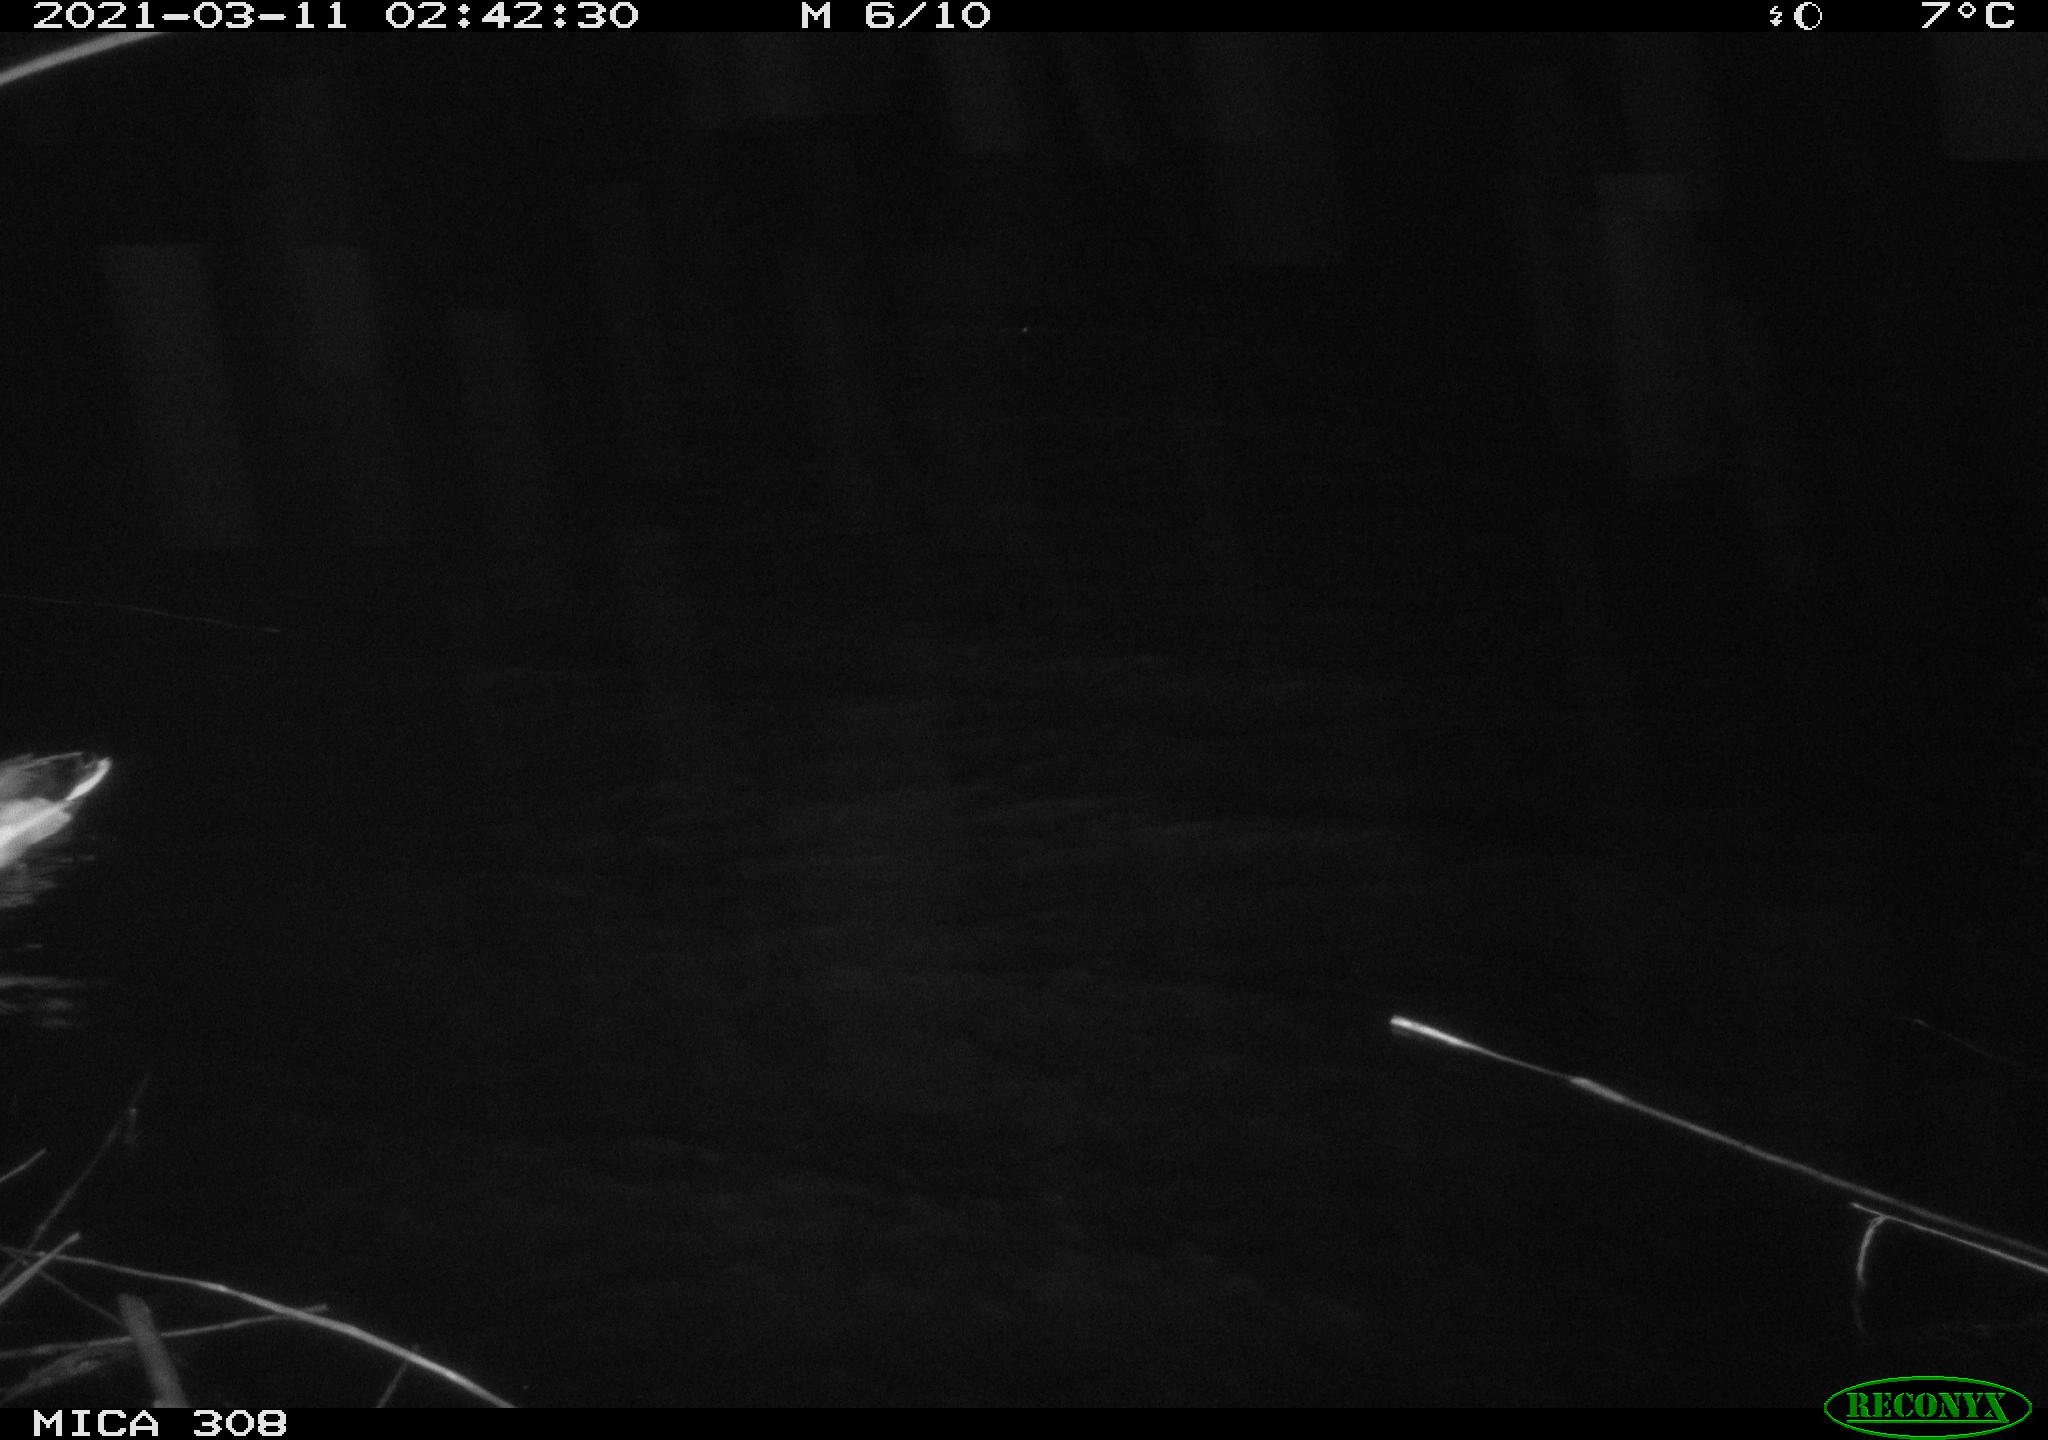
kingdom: Animalia
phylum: Chordata
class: Aves
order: Anseriformes
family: Anatidae
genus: Anas
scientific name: Anas platyrhynchos
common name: Mallard
